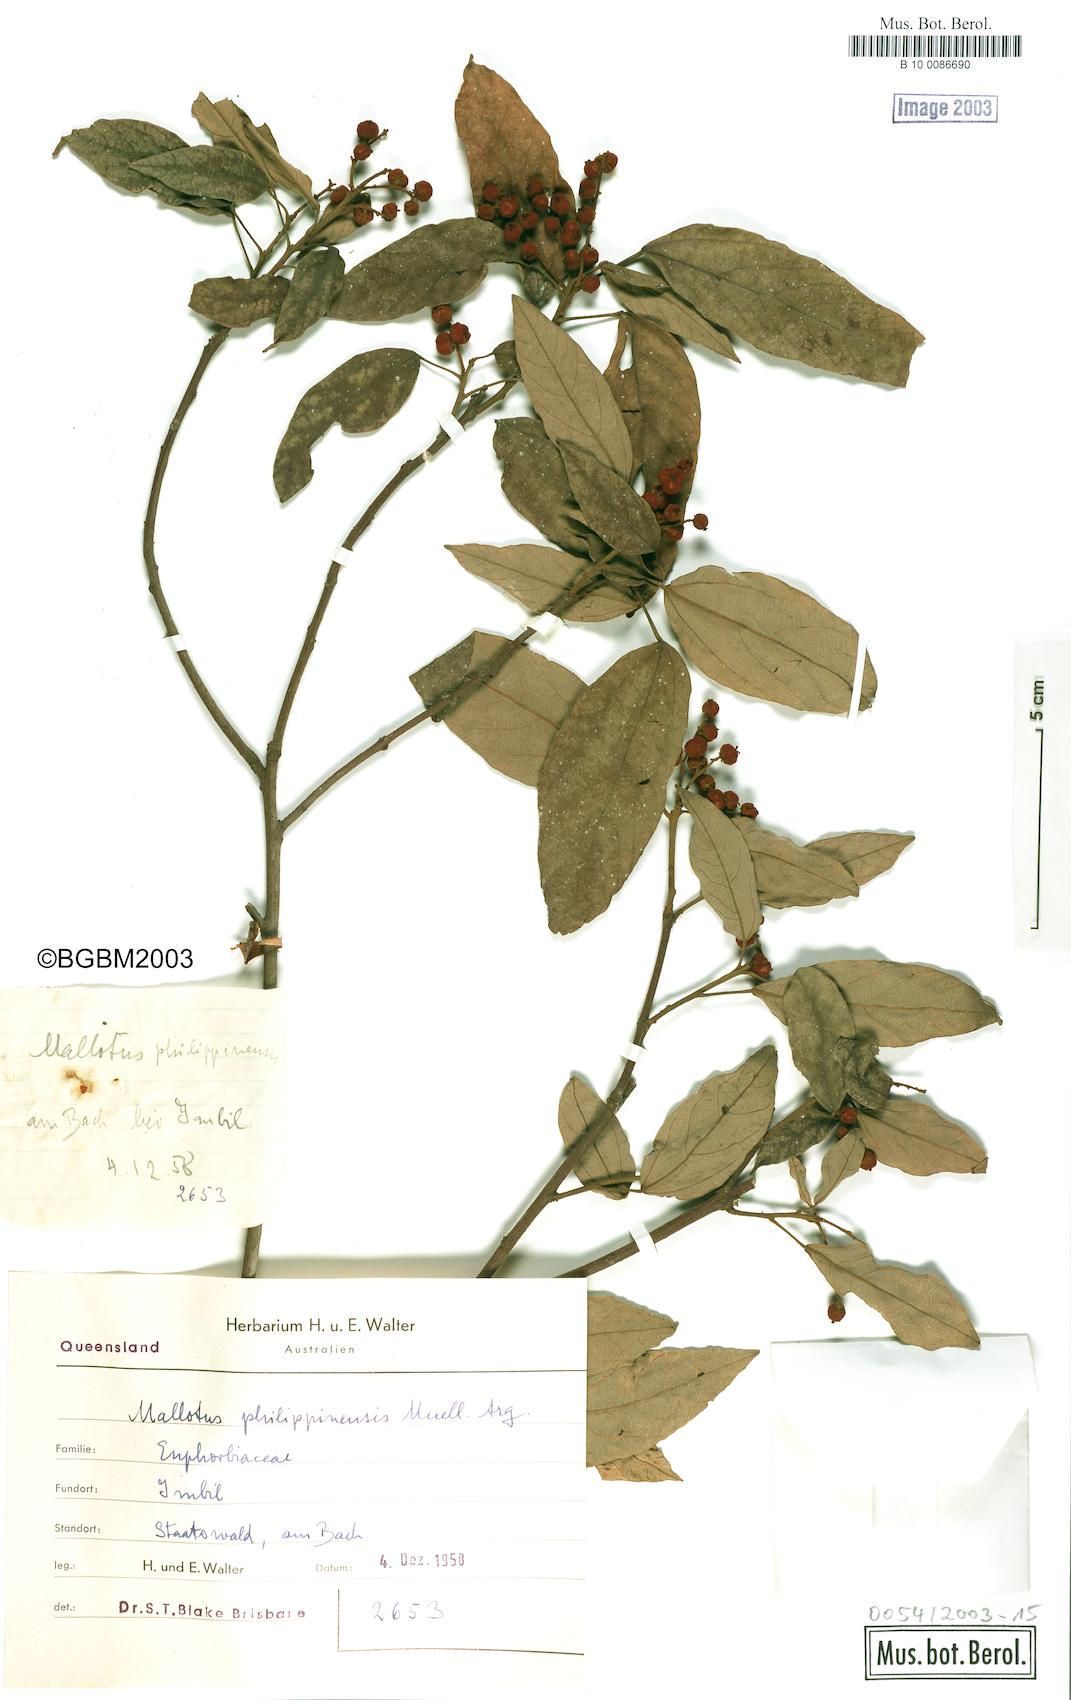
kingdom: Plantae
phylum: Tracheophyta
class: Magnoliopsida
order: Malpighiales
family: Euphorbiaceae
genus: Mallotus
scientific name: Mallotus philippensis
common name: Kamala tree
